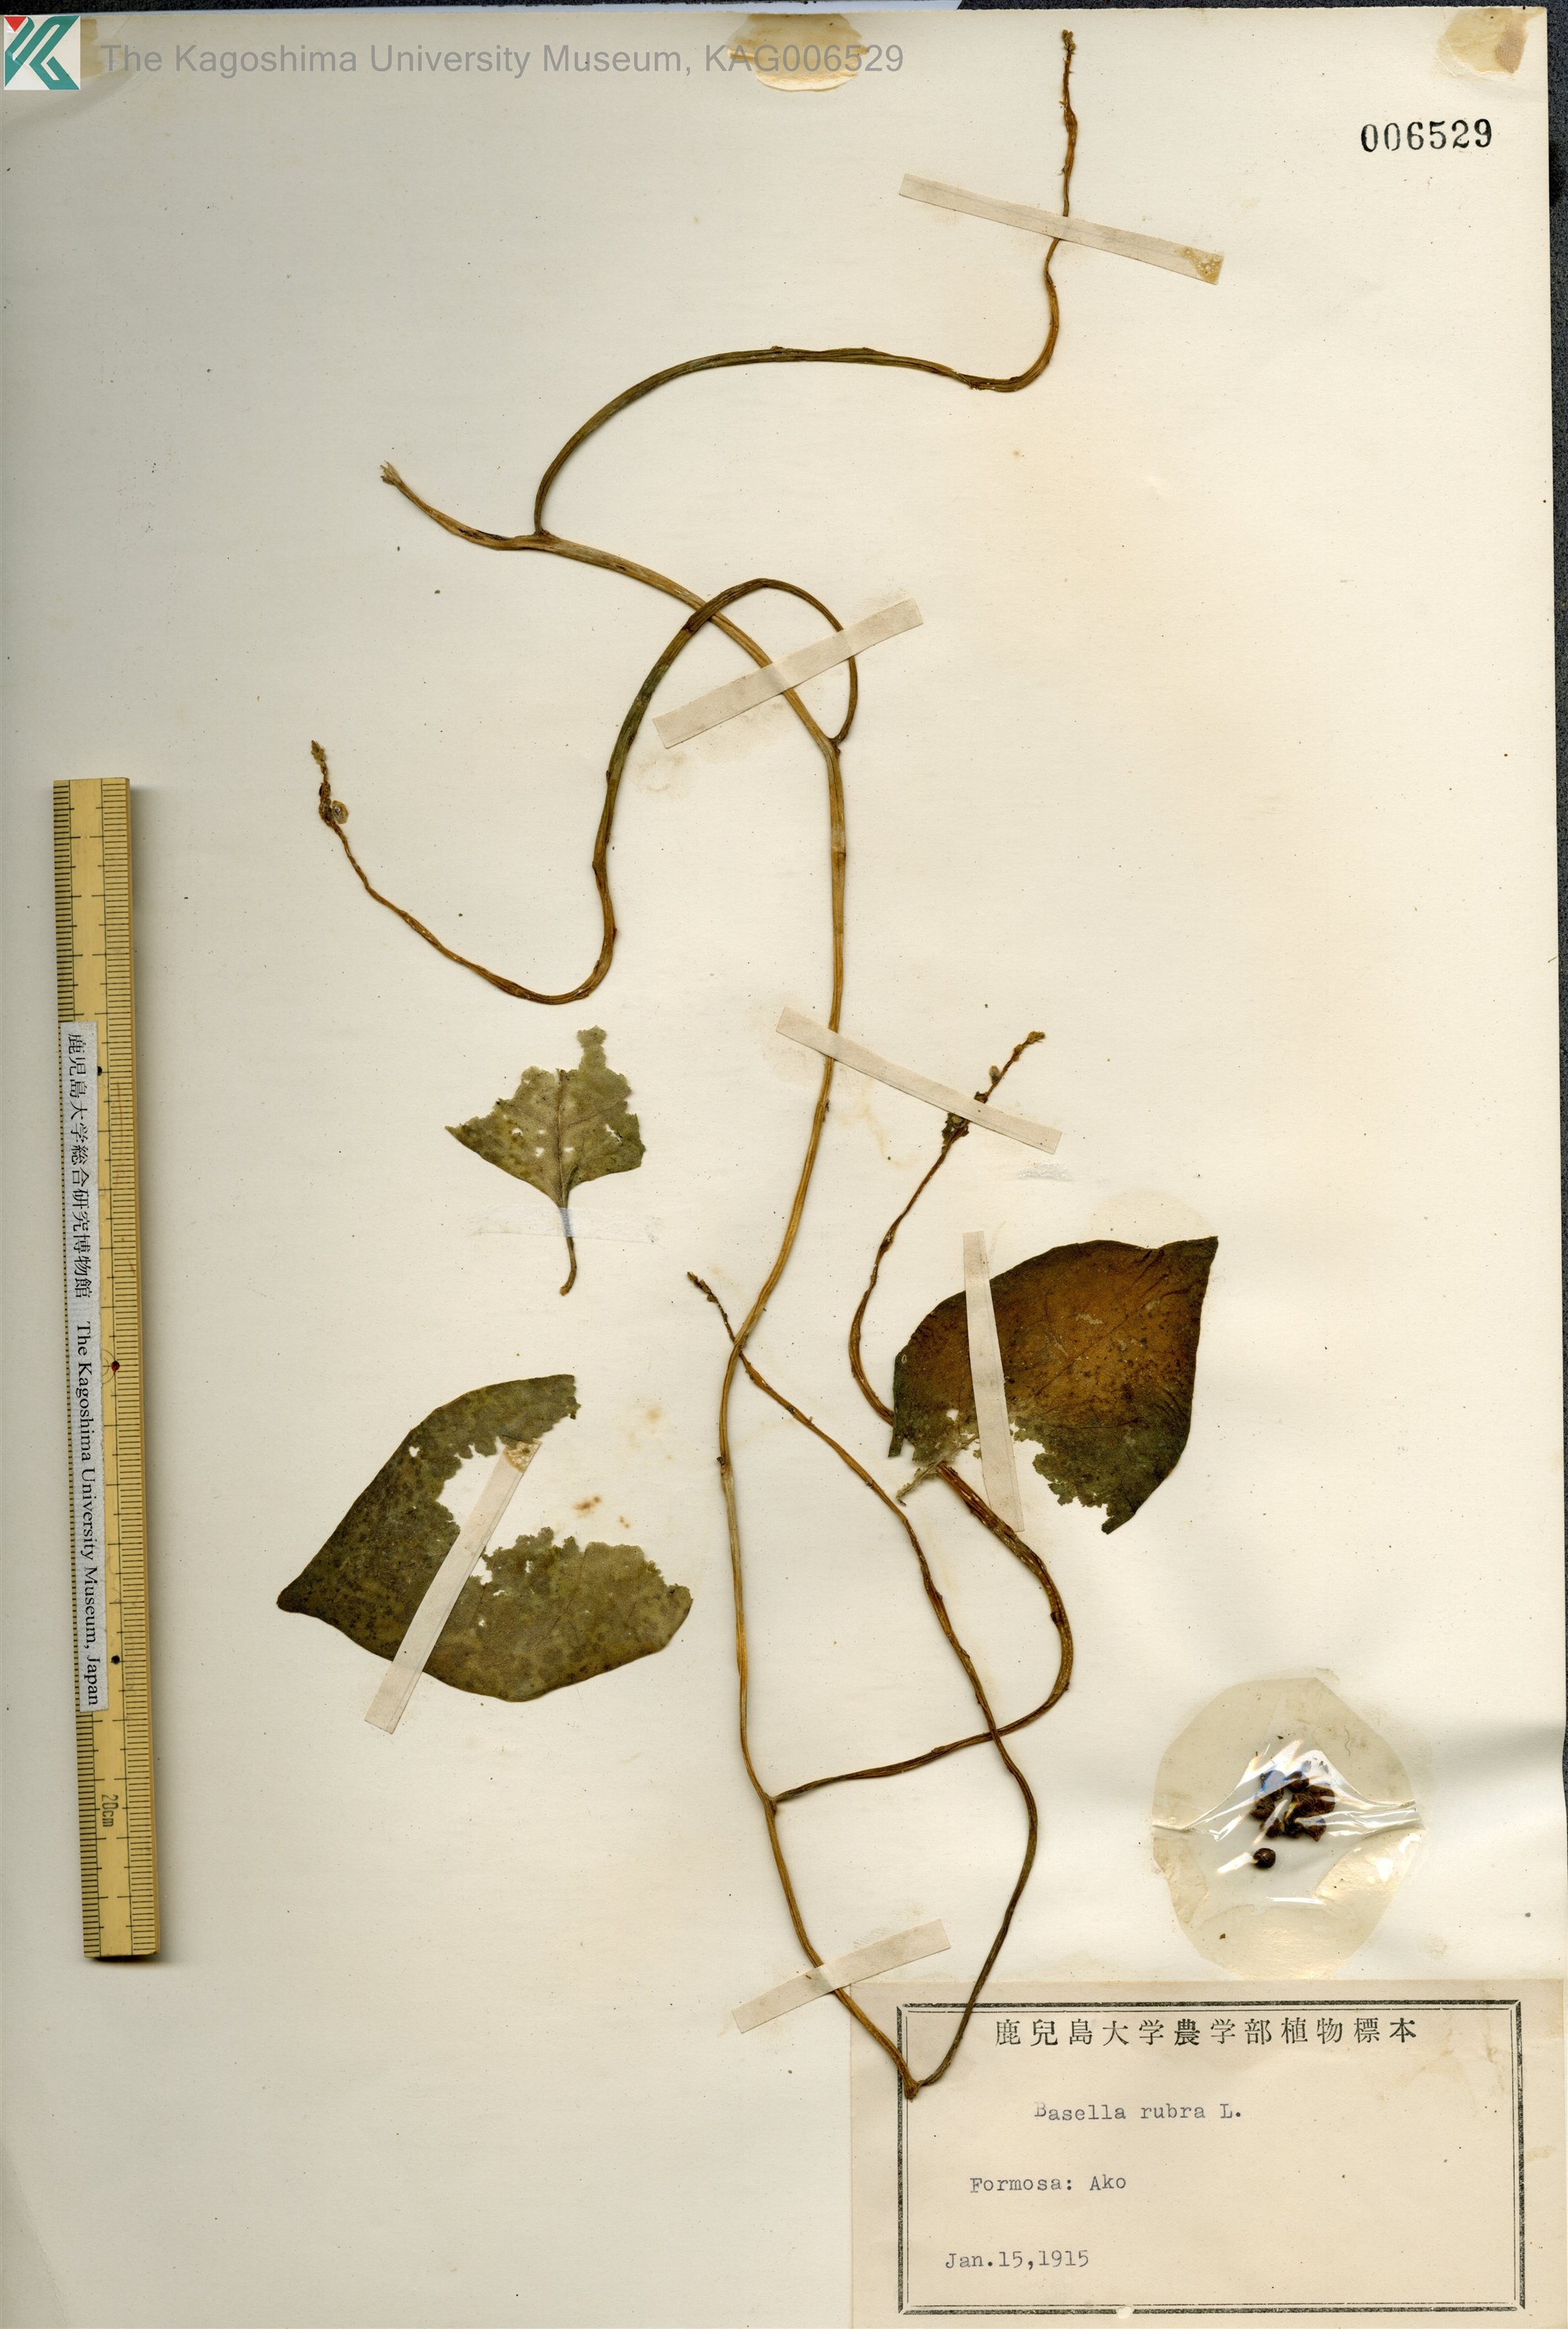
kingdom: Plantae
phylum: Tracheophyta
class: Magnoliopsida
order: Caryophyllales
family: Basellaceae
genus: Basella
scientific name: Basella alba
